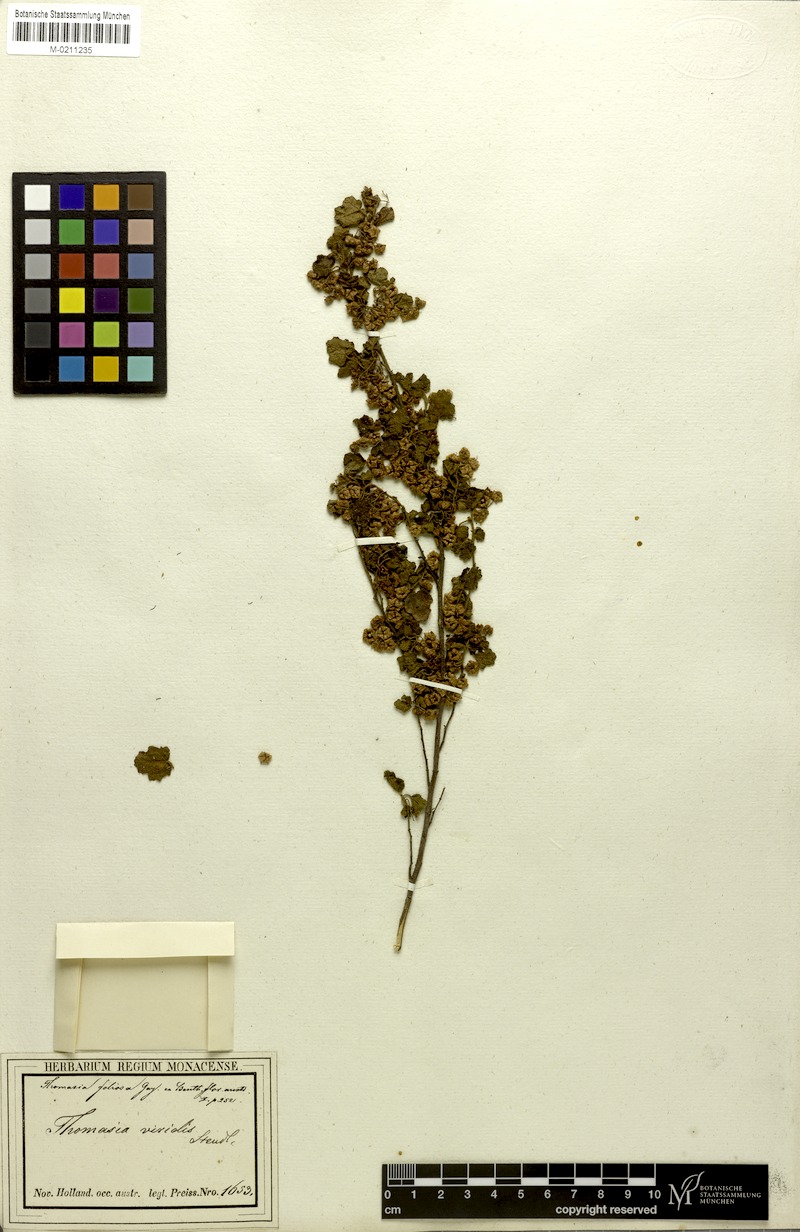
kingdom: Plantae
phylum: Tracheophyta
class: Magnoliopsida
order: Malvales
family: Malvaceae
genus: Thomasia
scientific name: Thomasia foliosa
